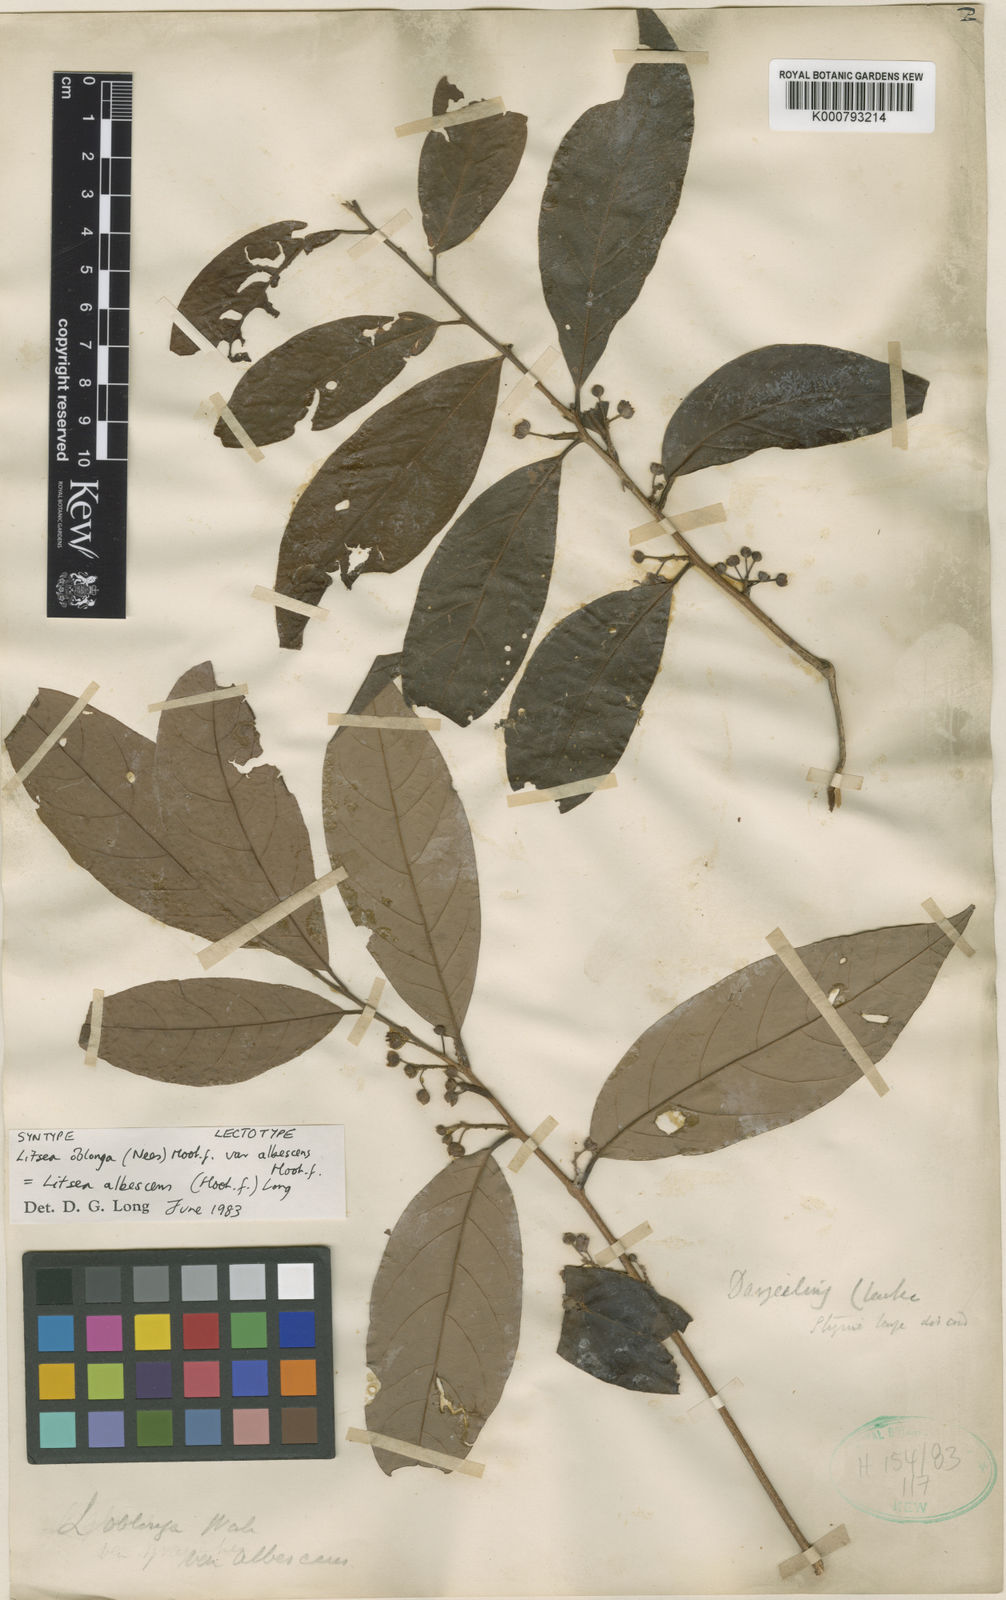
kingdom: Plantae
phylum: Tracheophyta
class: Magnoliopsida
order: Laurales
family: Lauraceae
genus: Litsea
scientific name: Litsea doshia
